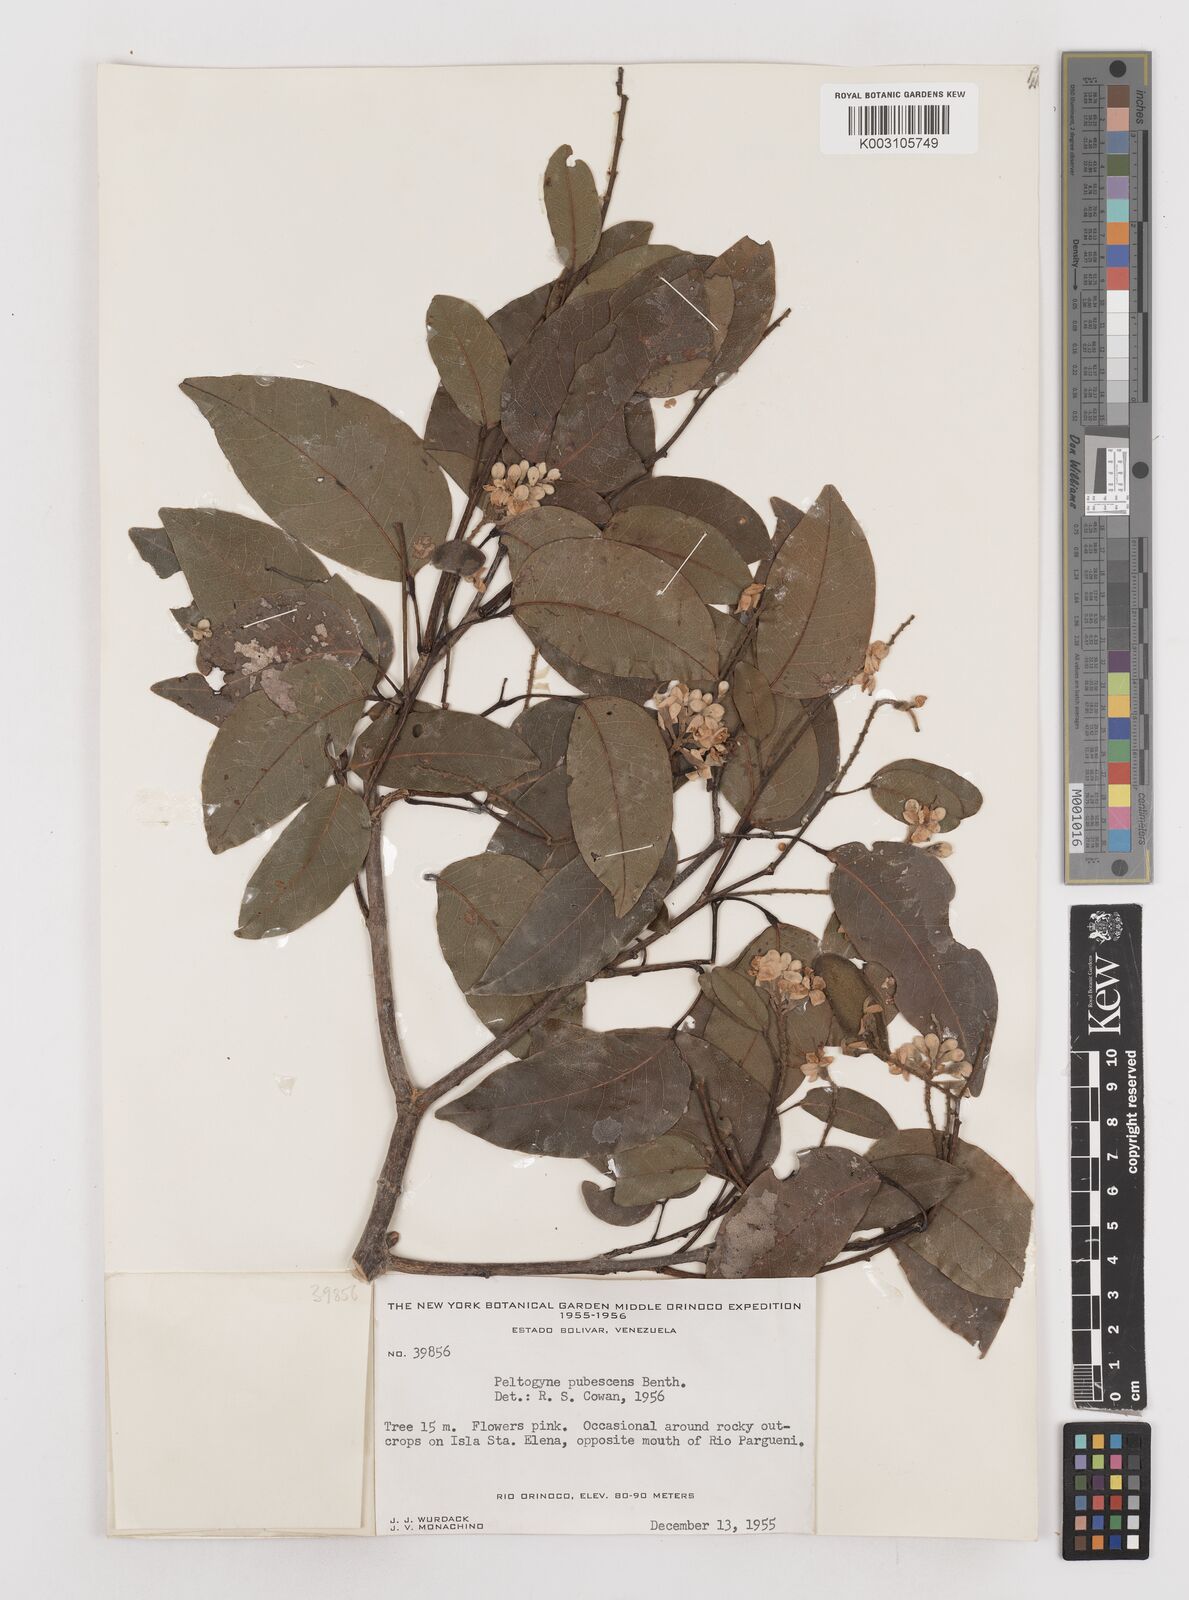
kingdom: Plantae
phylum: Tracheophyta
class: Magnoliopsida
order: Fabales
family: Fabaceae
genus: Peltogyne
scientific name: Peltogyne paniculata
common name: Purpleheart
